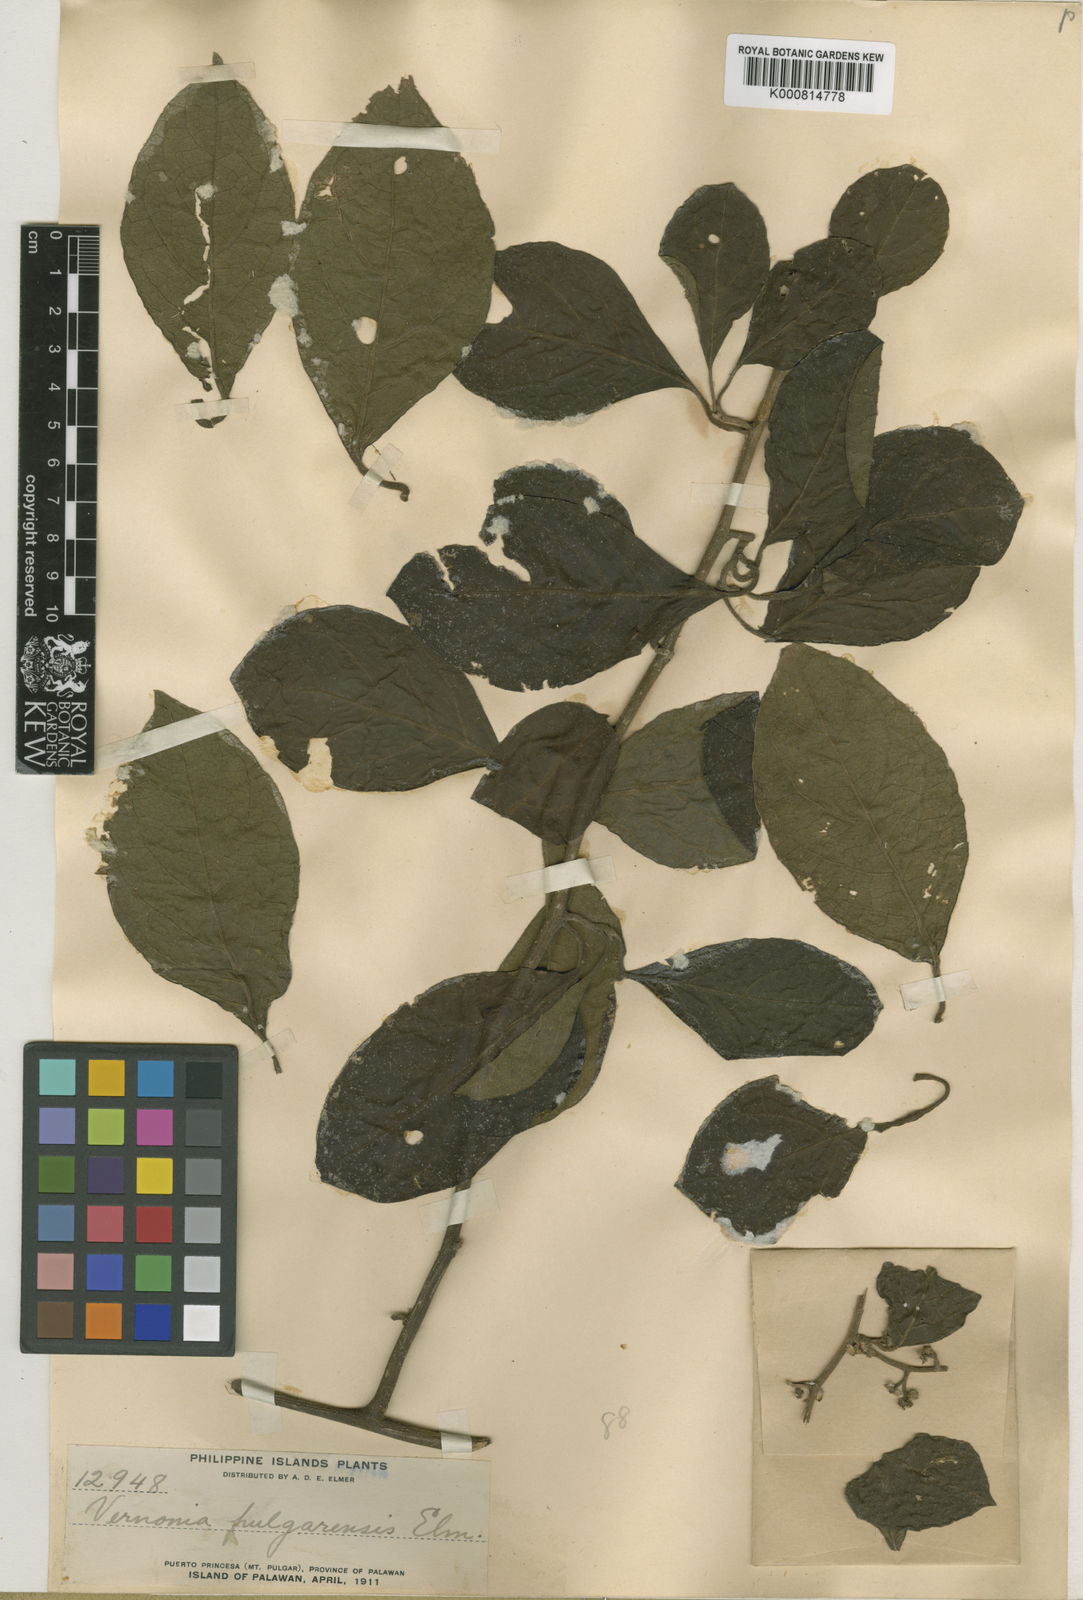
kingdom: Plantae
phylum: Tracheophyta
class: Magnoliopsida
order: Asterales
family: Asteraceae
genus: Vernonia
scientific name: Vernonia pulgarensis
